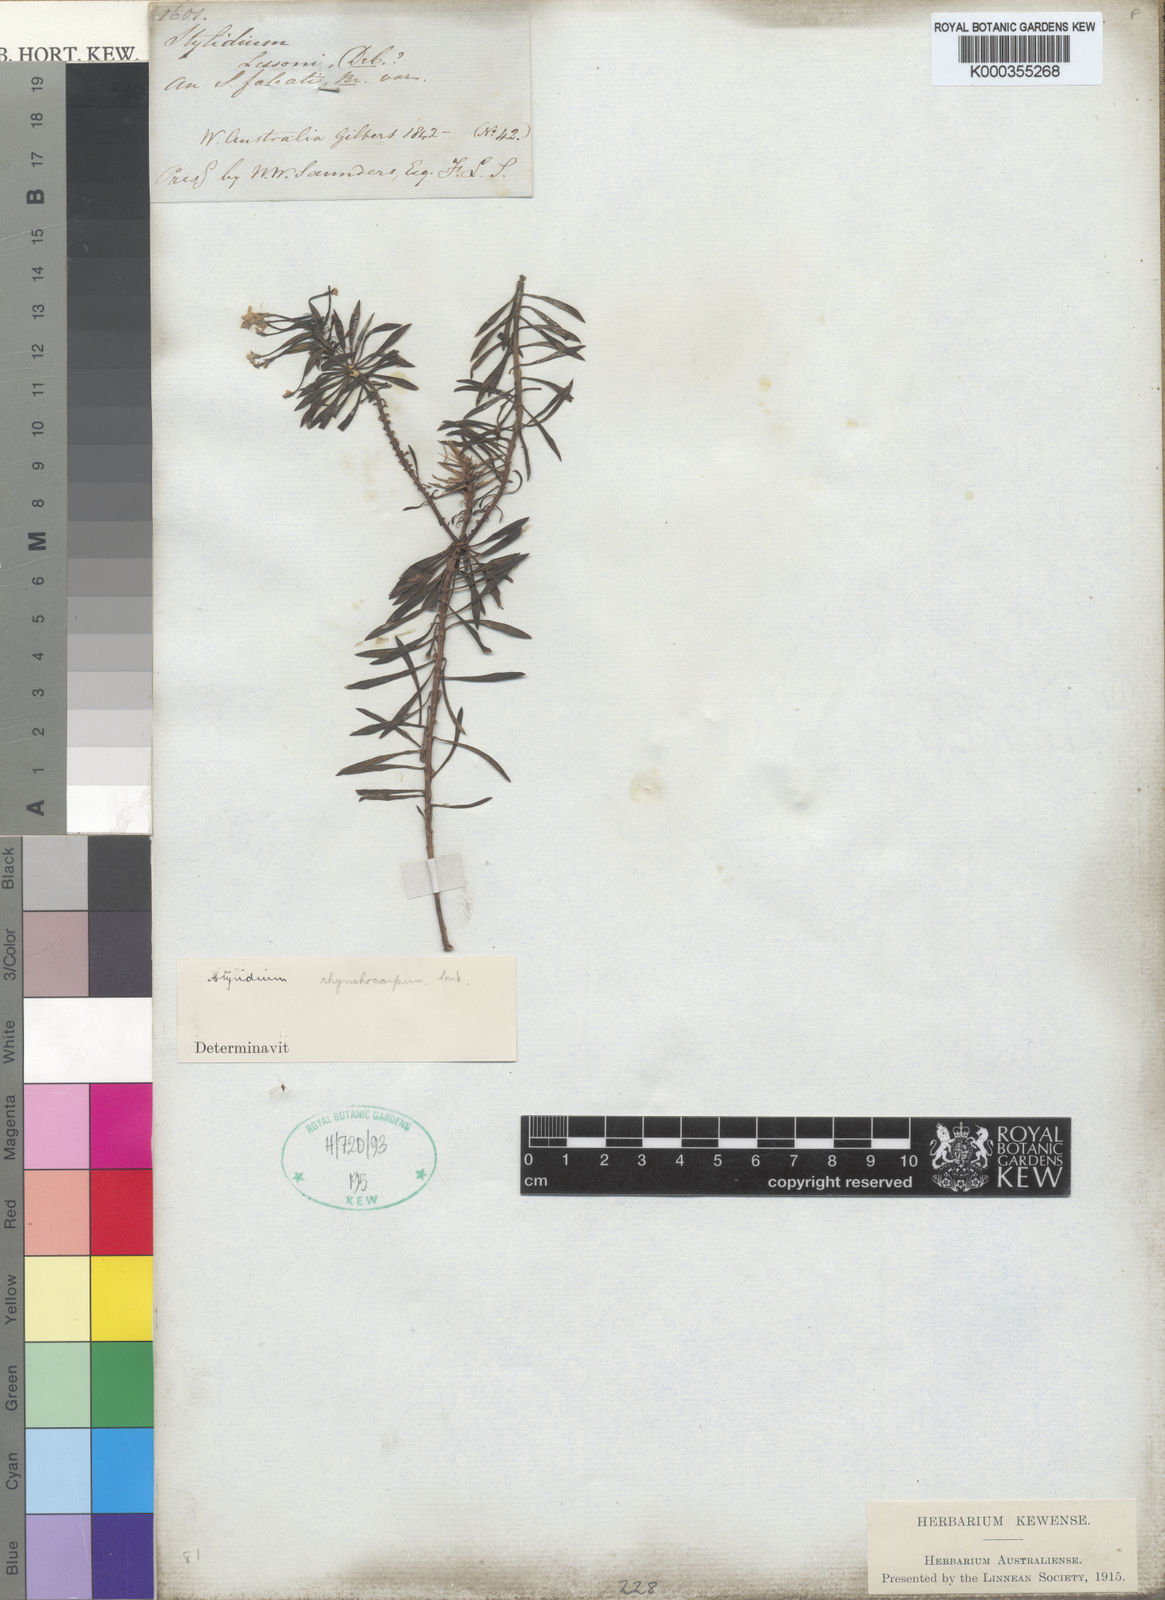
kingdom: Plantae
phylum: Tracheophyta
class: Magnoliopsida
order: Asterales
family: Stylidiaceae
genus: Stylidium
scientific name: Stylidium rhynchocarpum
